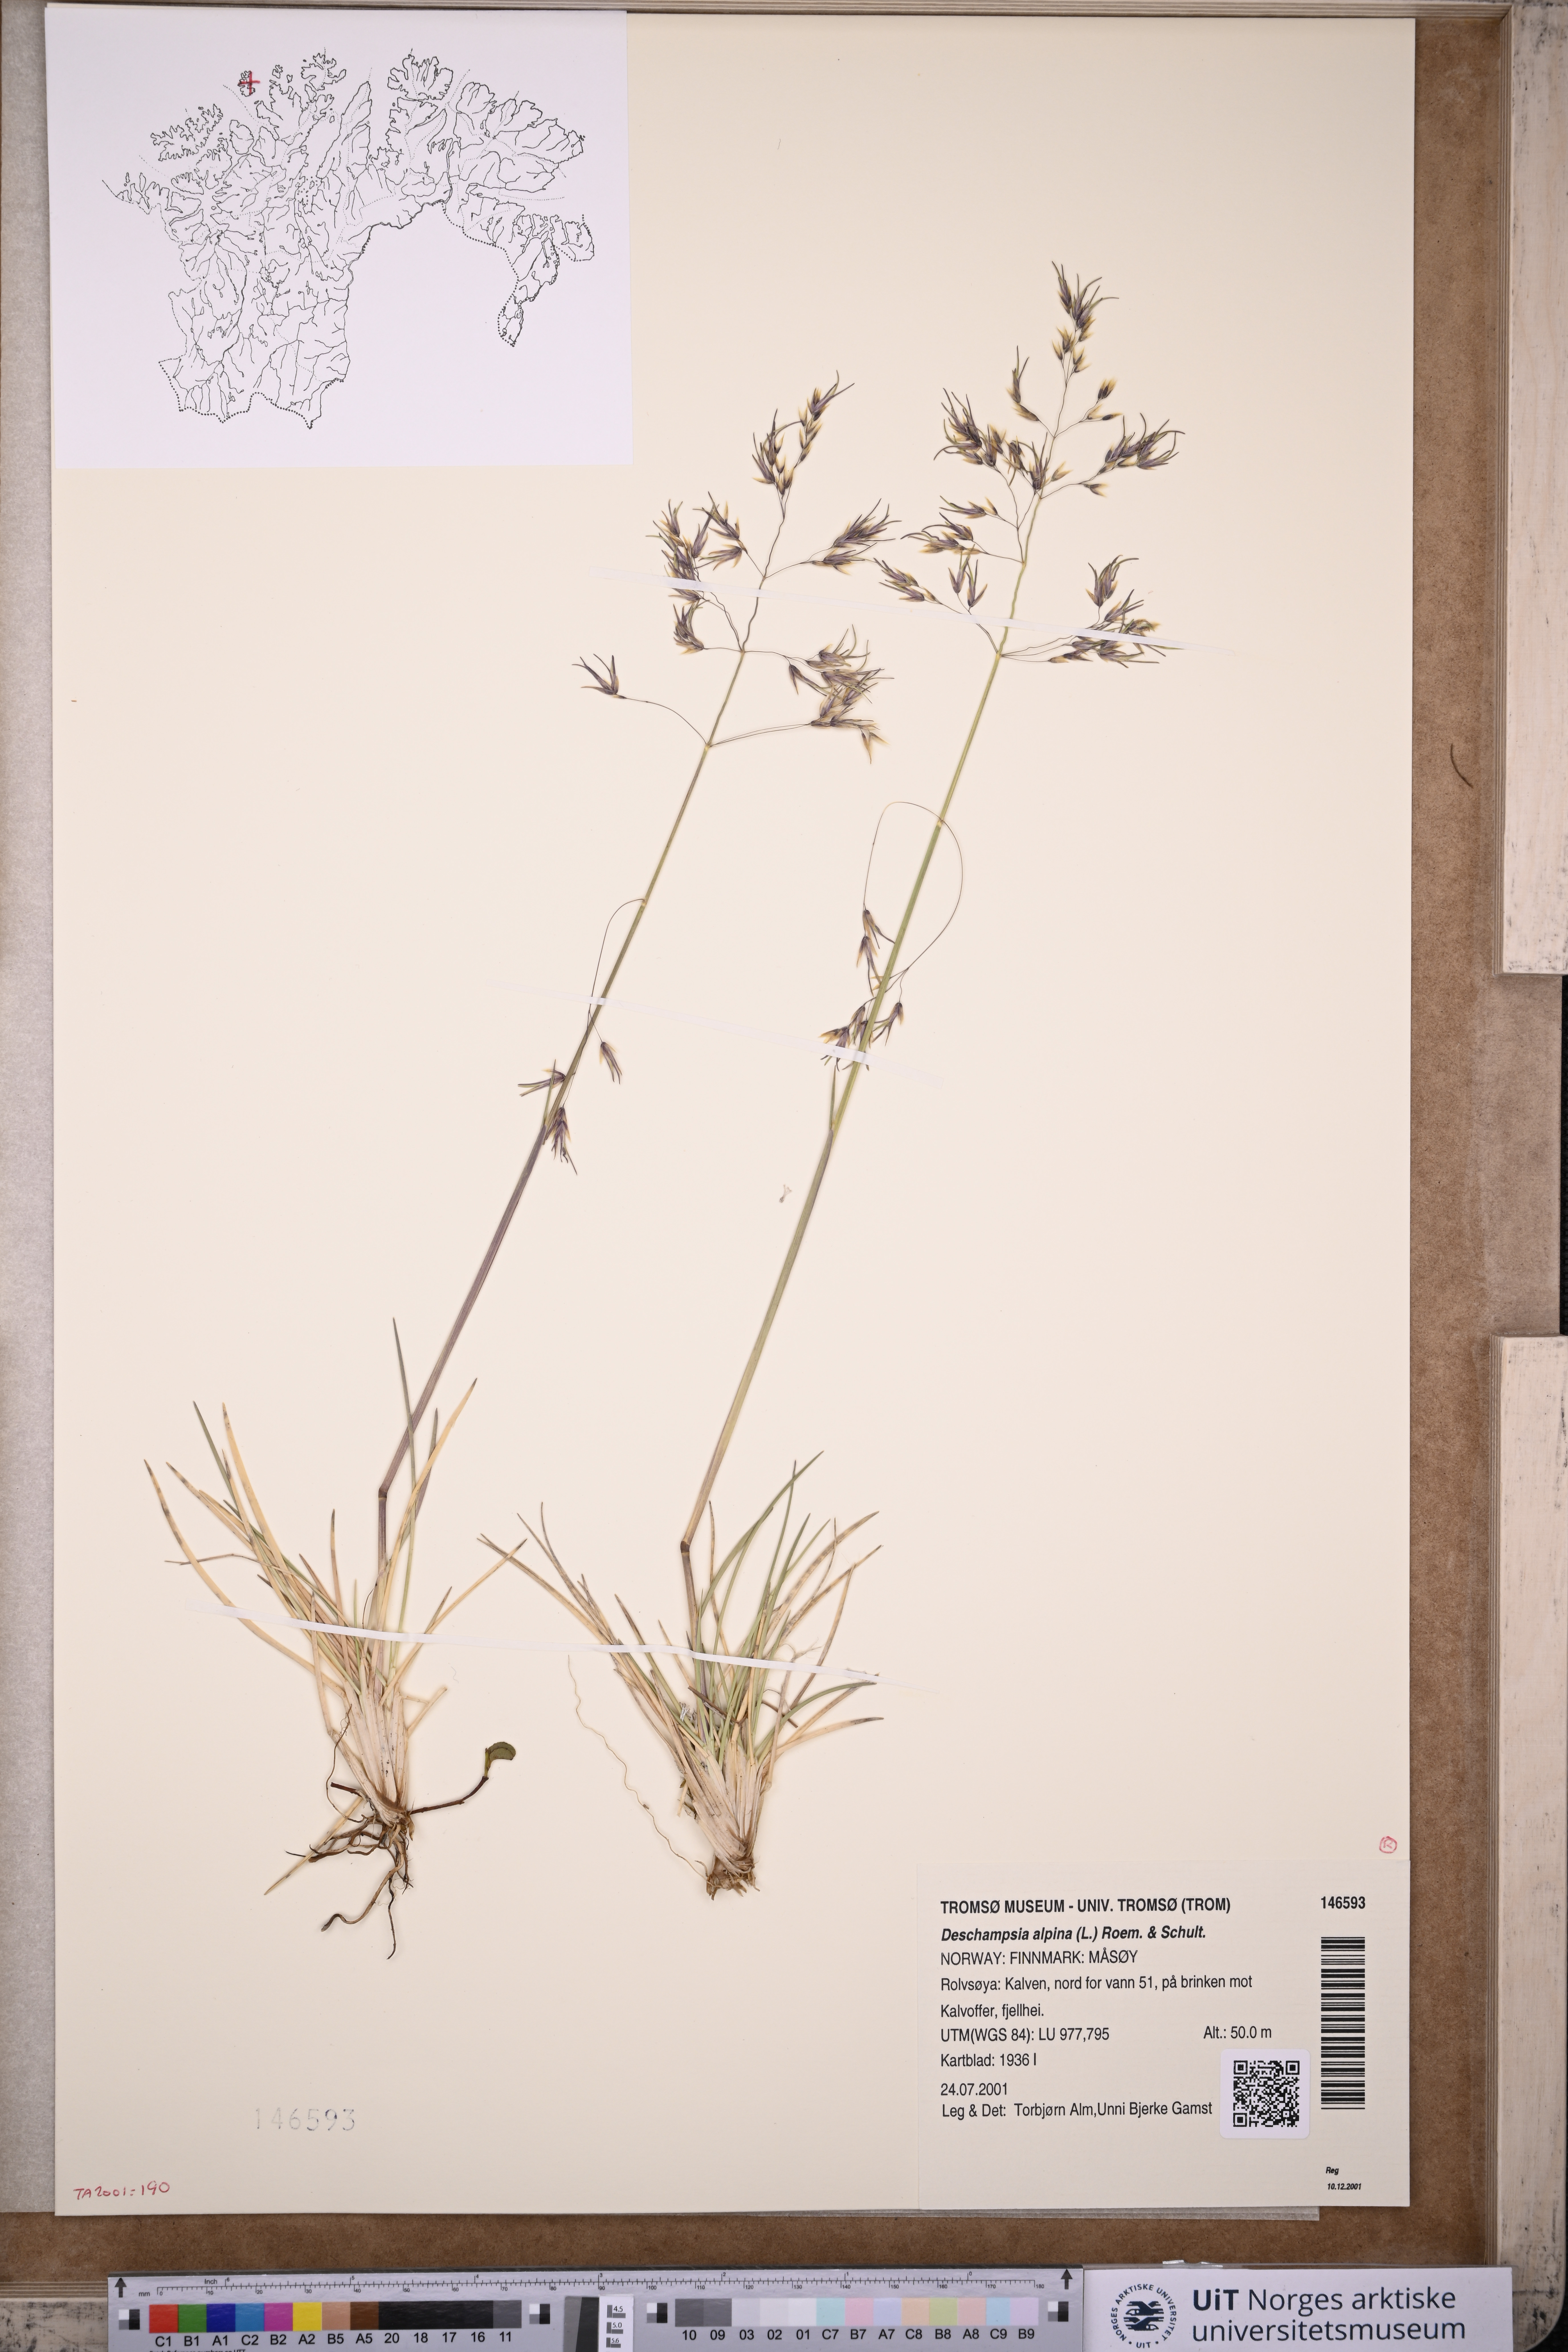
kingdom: Plantae
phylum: Tracheophyta
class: Liliopsida
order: Poales
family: Poaceae
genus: Deschampsia
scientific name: Deschampsia cespitosa
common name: Tufted hair-grass
